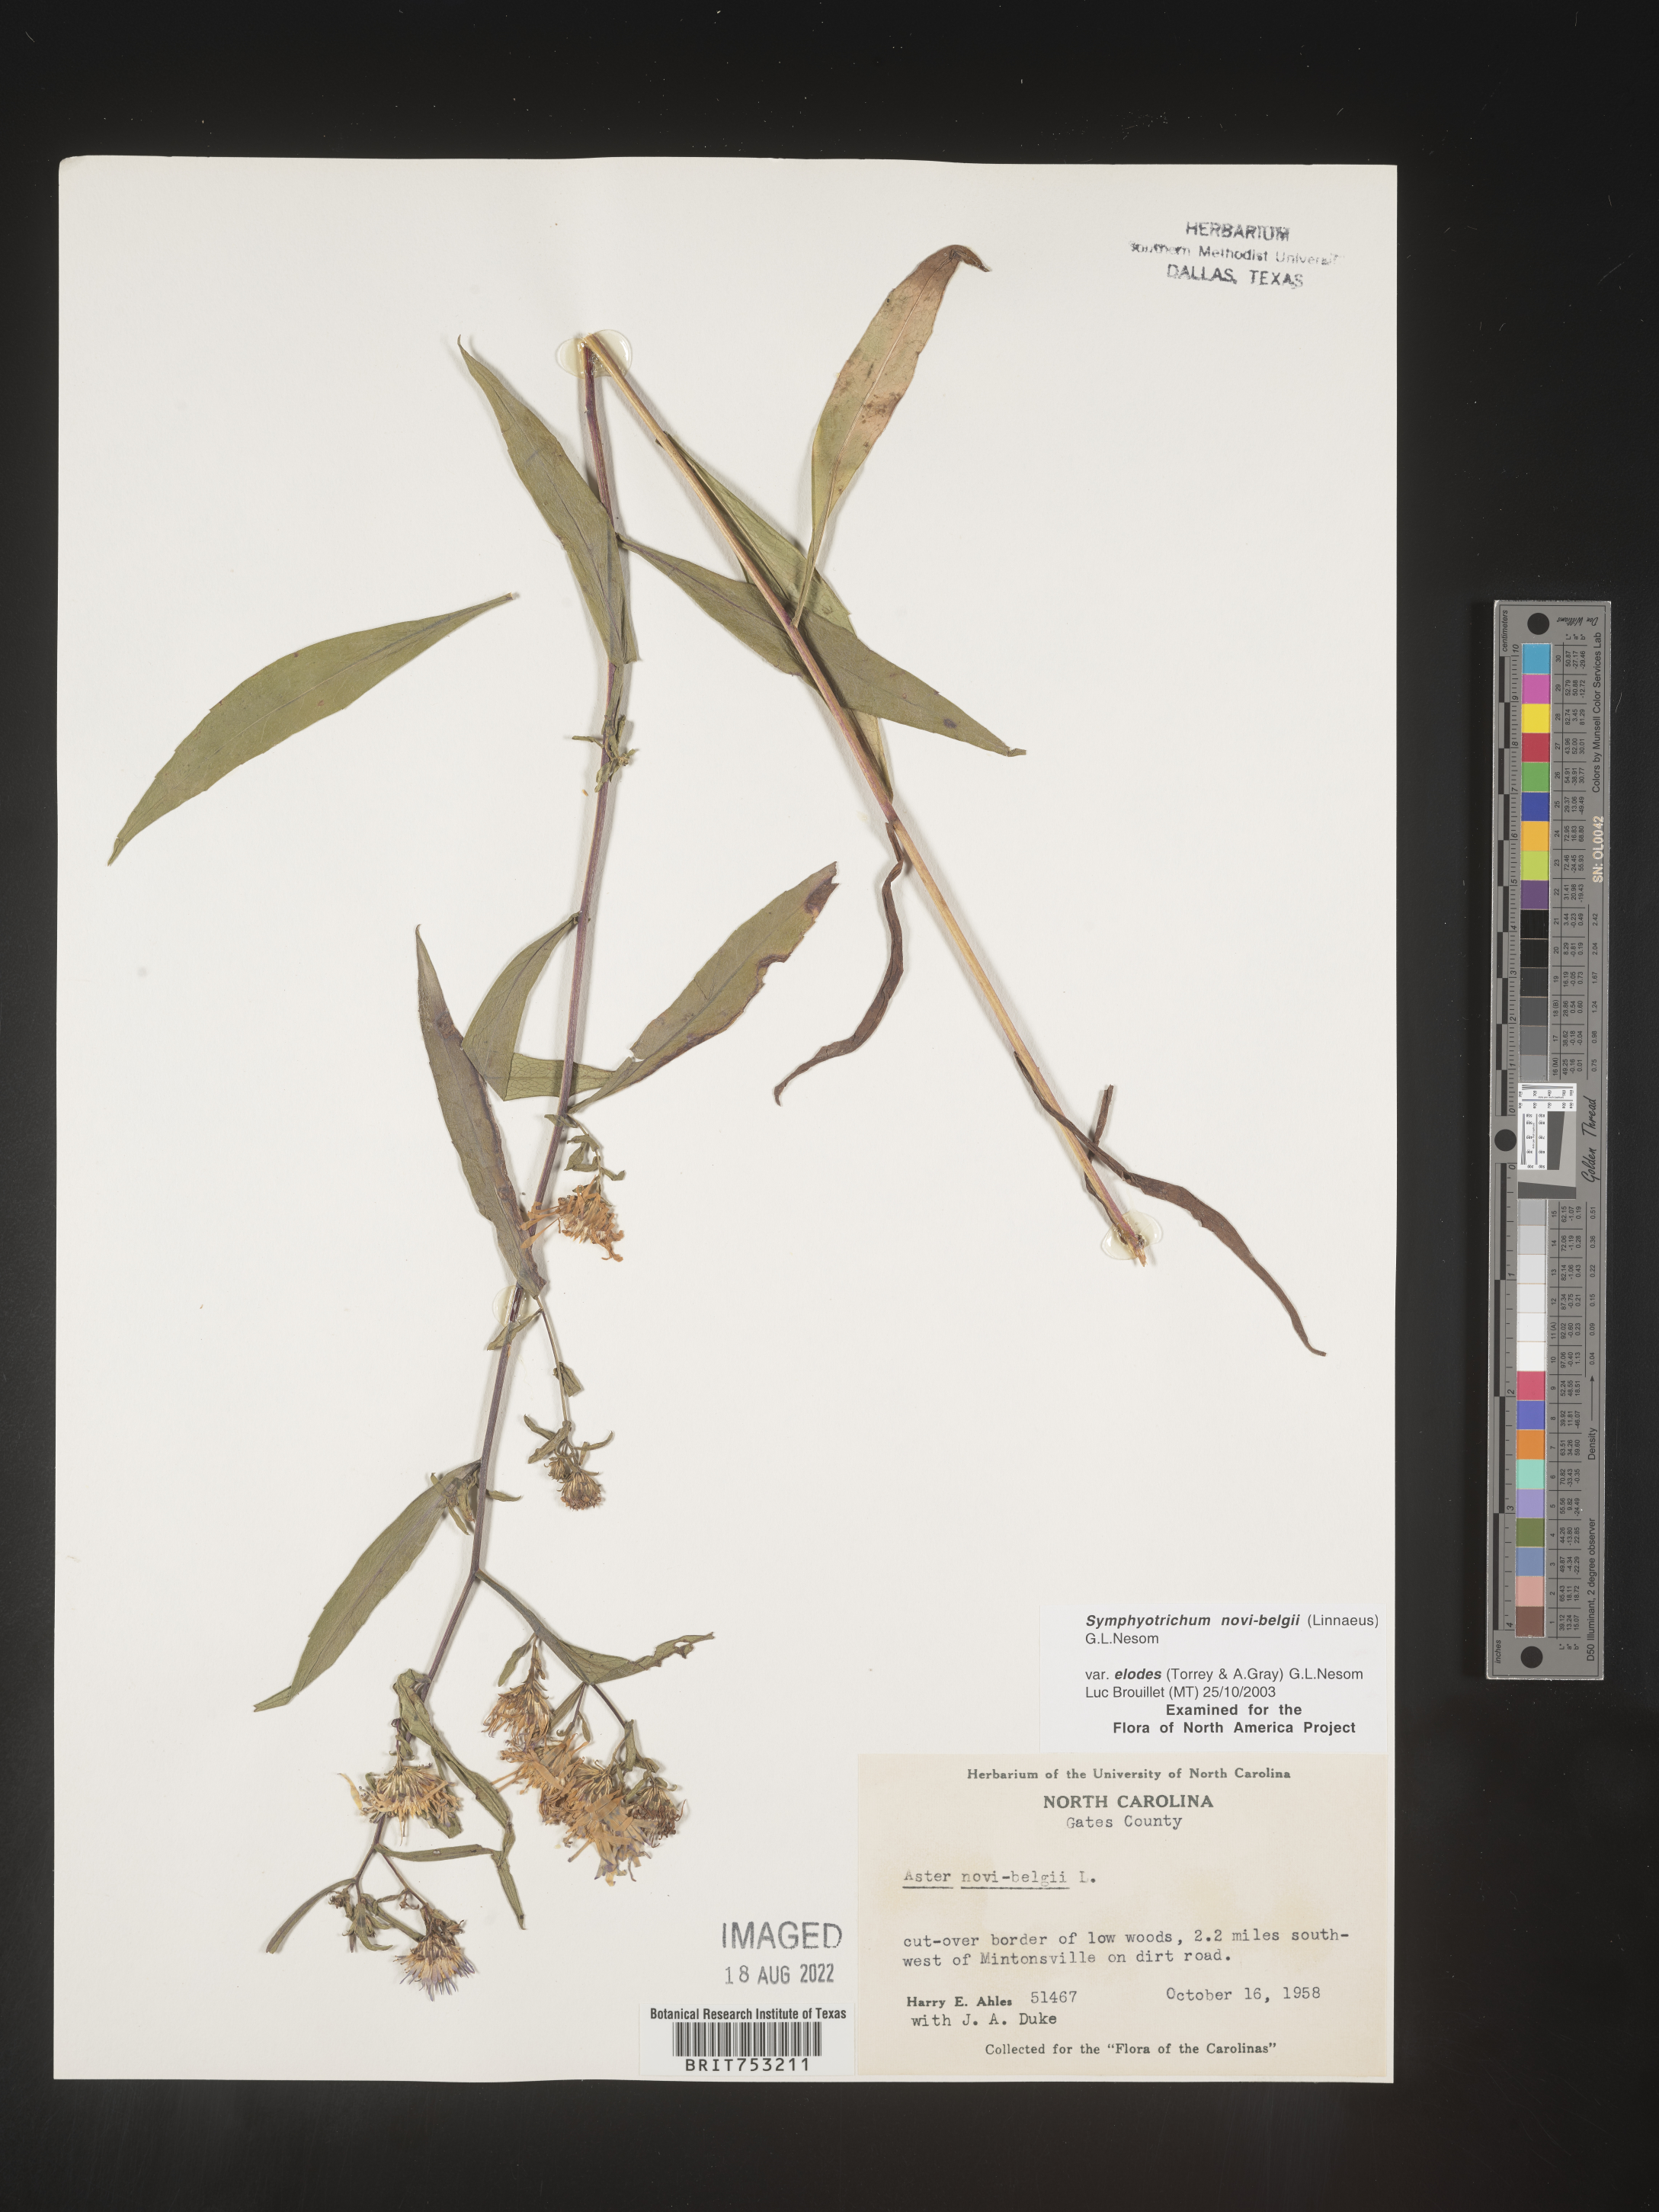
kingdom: Plantae
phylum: Tracheophyta
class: Magnoliopsida
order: Asterales
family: Asteraceae
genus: Symphyotrichum
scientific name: Symphyotrichum novi-belgii
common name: Michaelmas daisy
